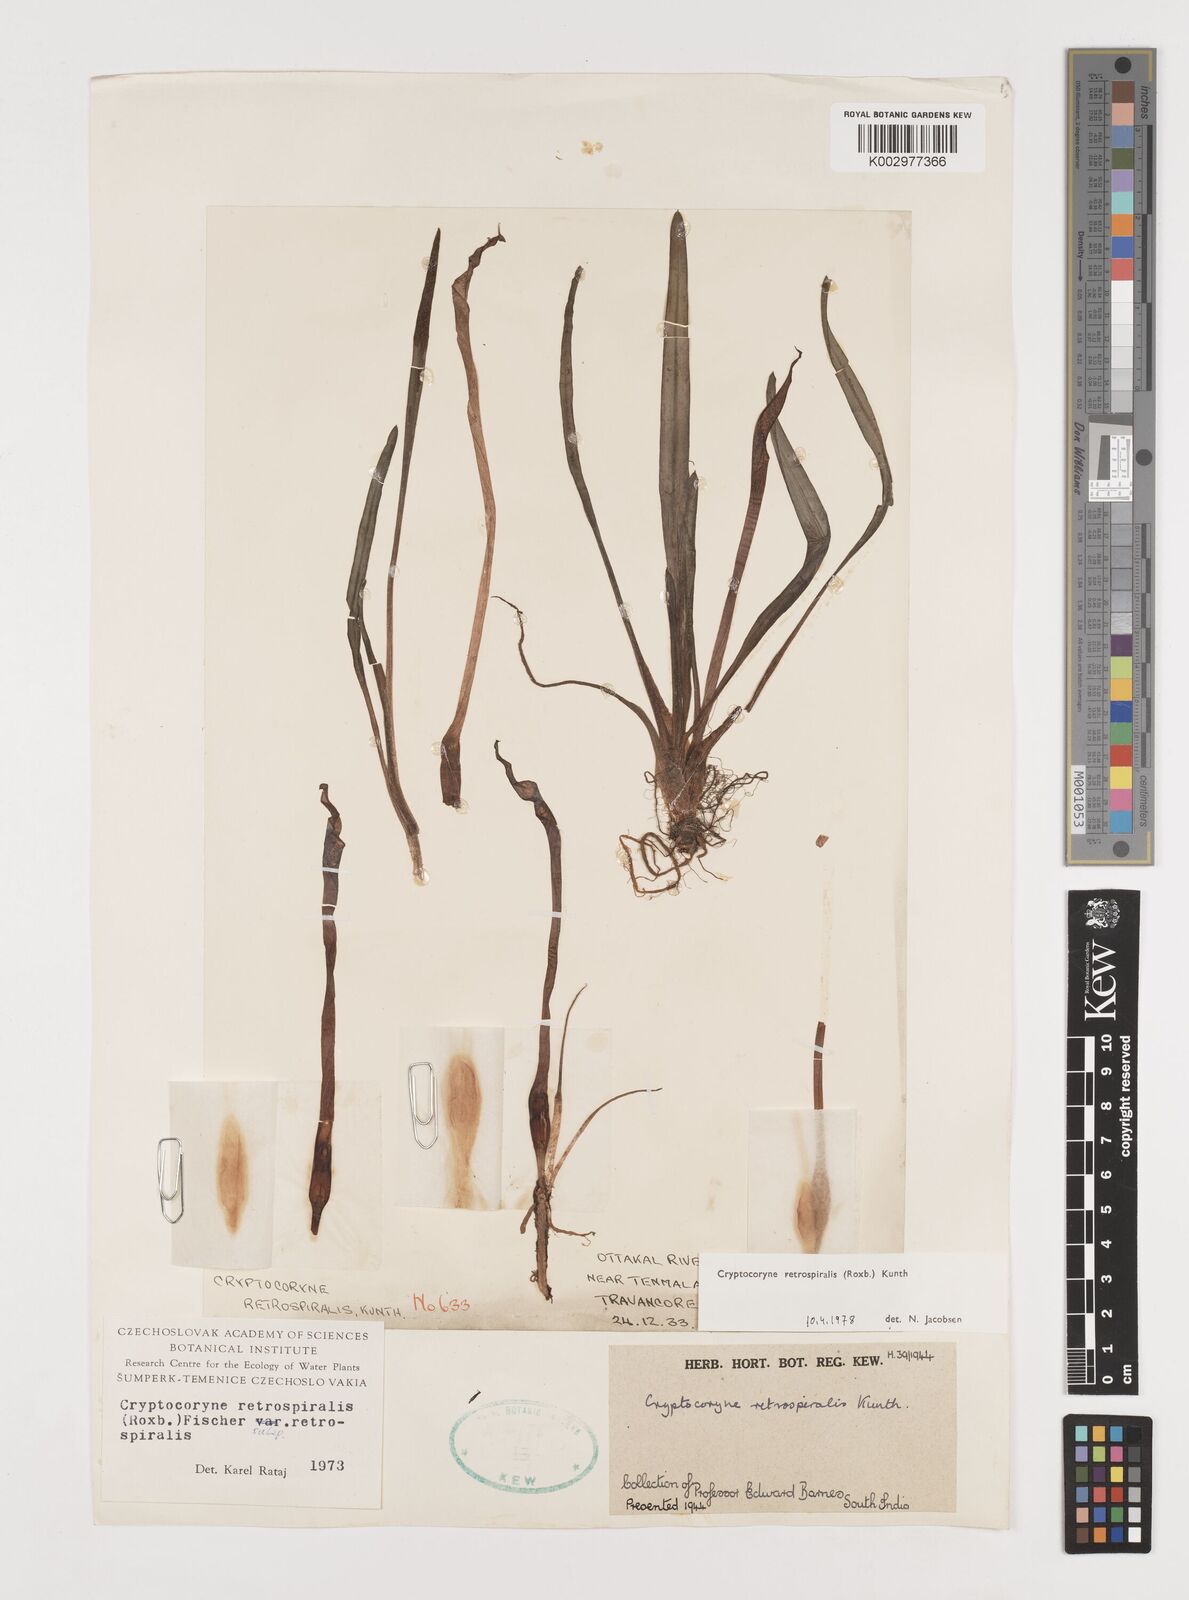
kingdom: Plantae
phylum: Tracheophyta
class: Liliopsida
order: Alismatales
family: Araceae
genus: Cryptocoryne
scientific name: Cryptocoryne retrospiralis
